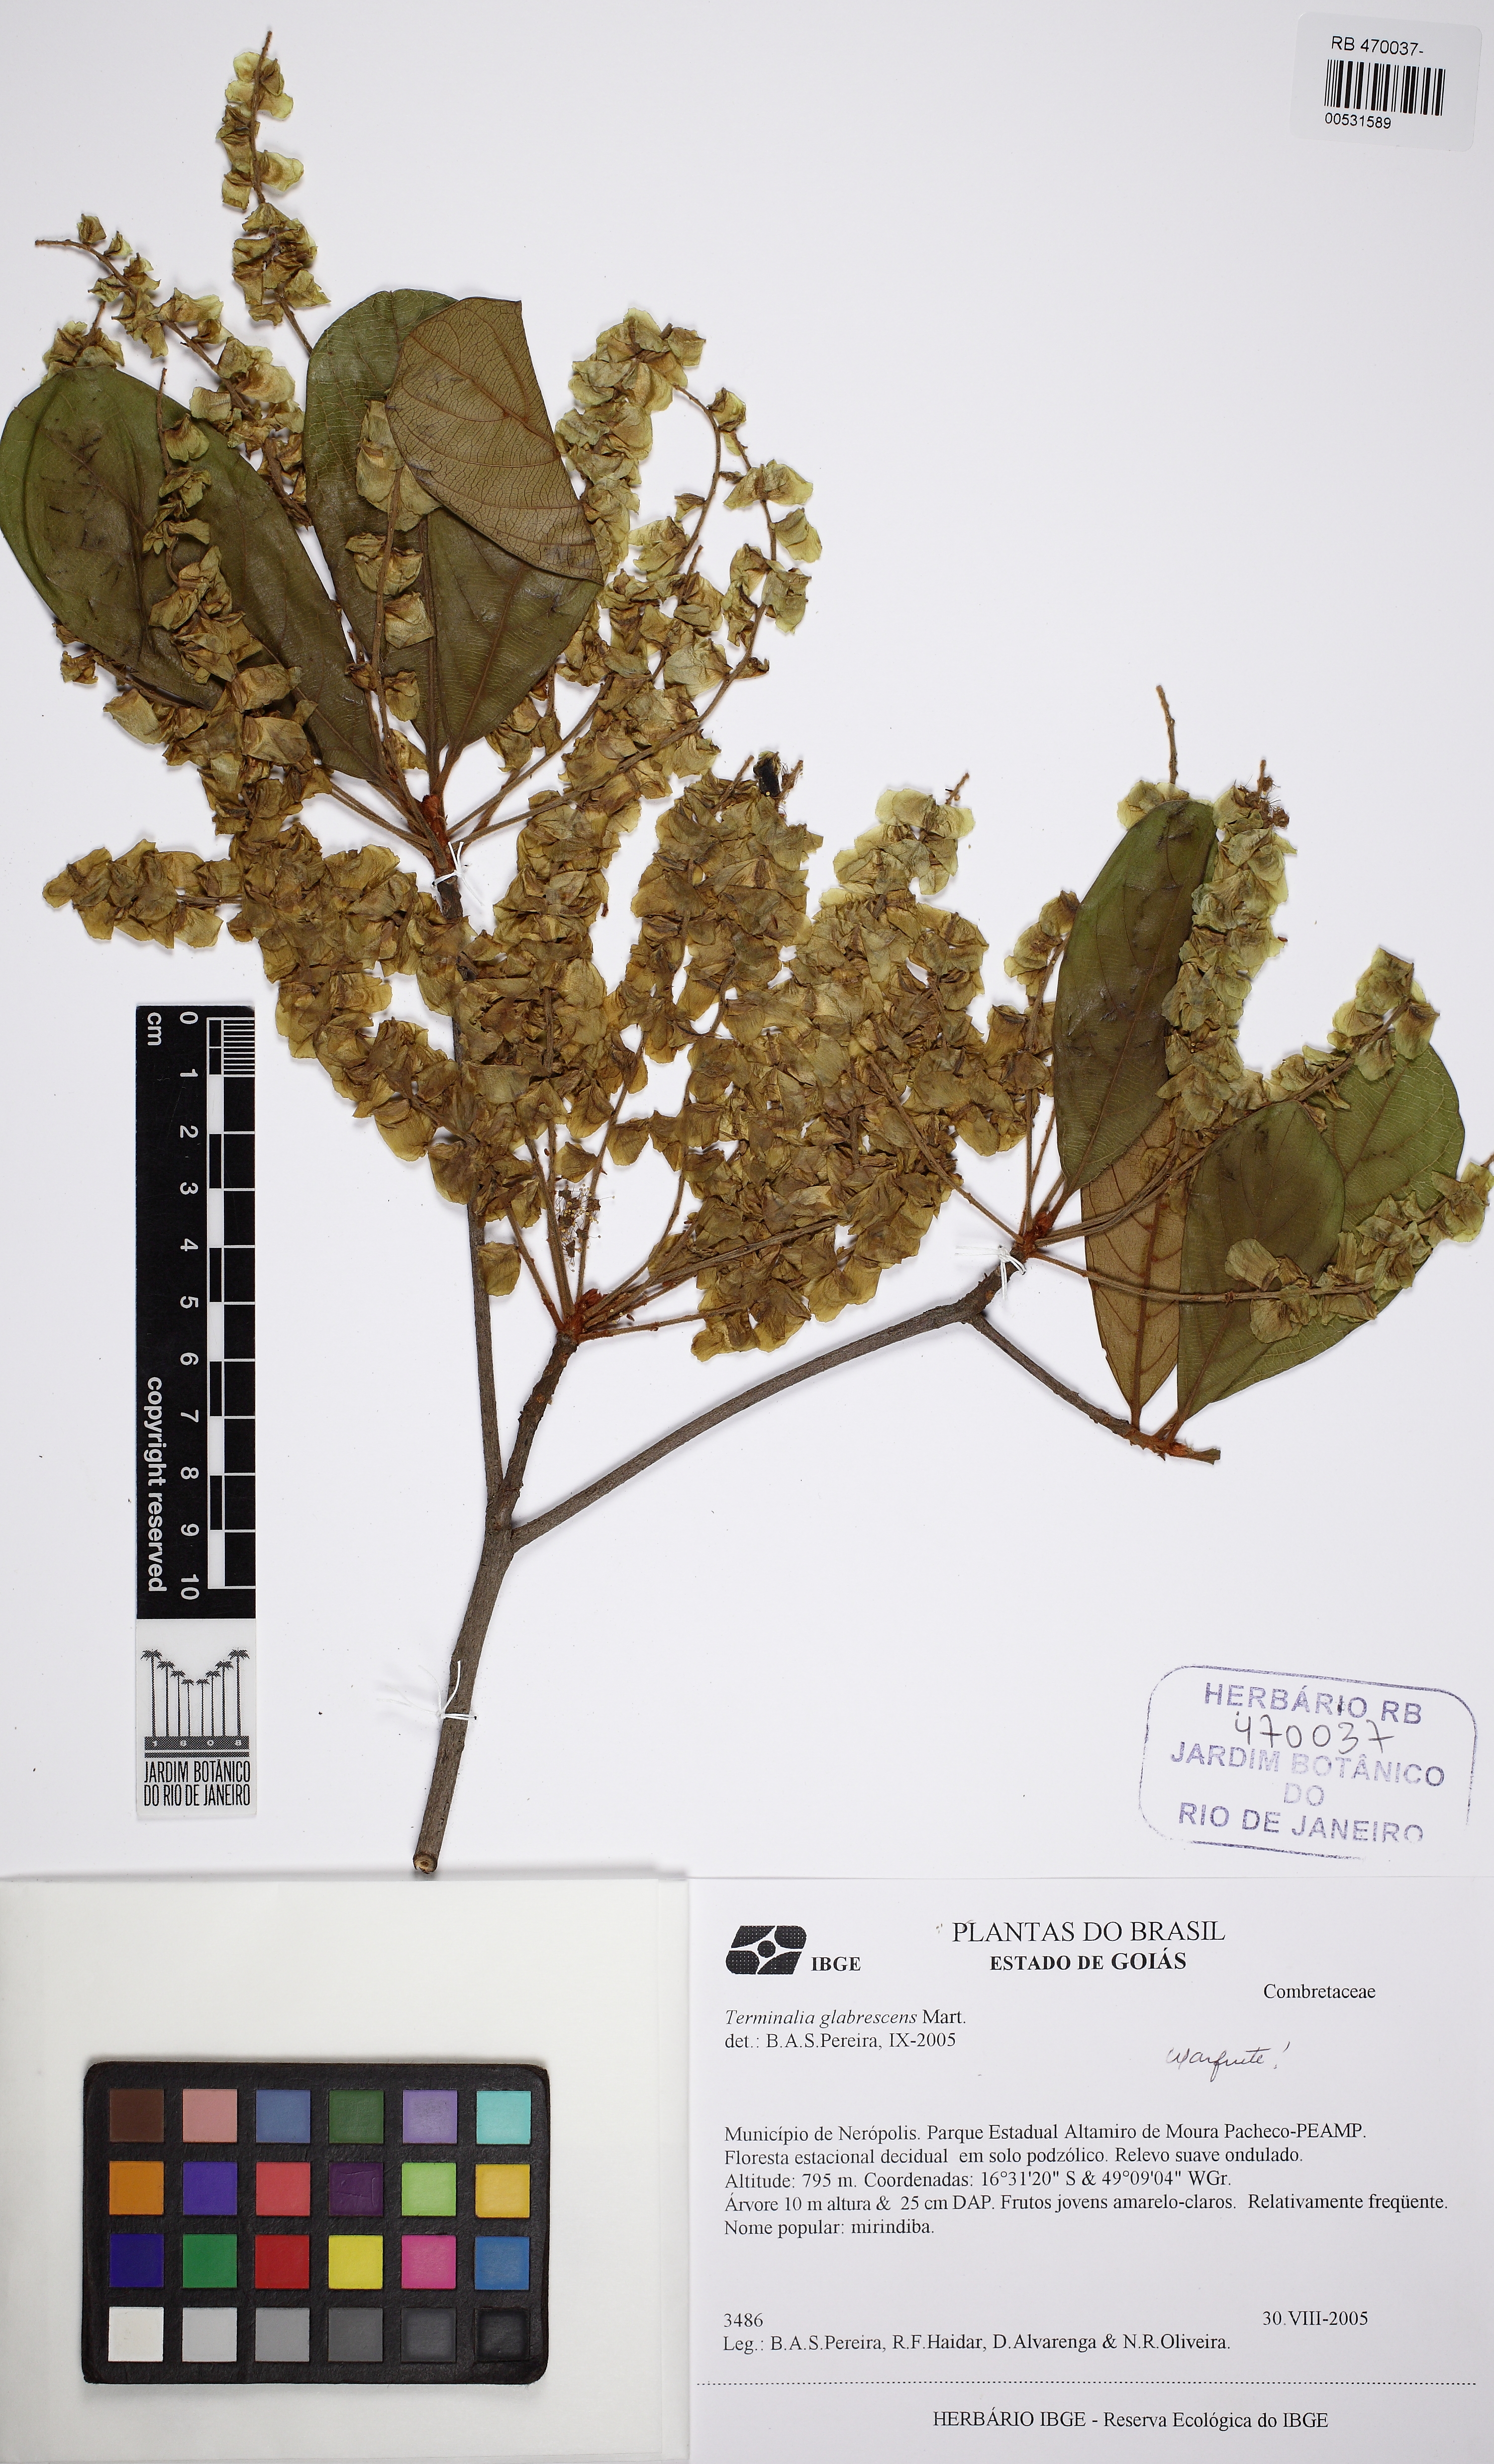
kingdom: Plantae
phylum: Tracheophyta
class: Magnoliopsida
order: Myrtales
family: Combretaceae
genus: Terminalia
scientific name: Terminalia glabrescens
